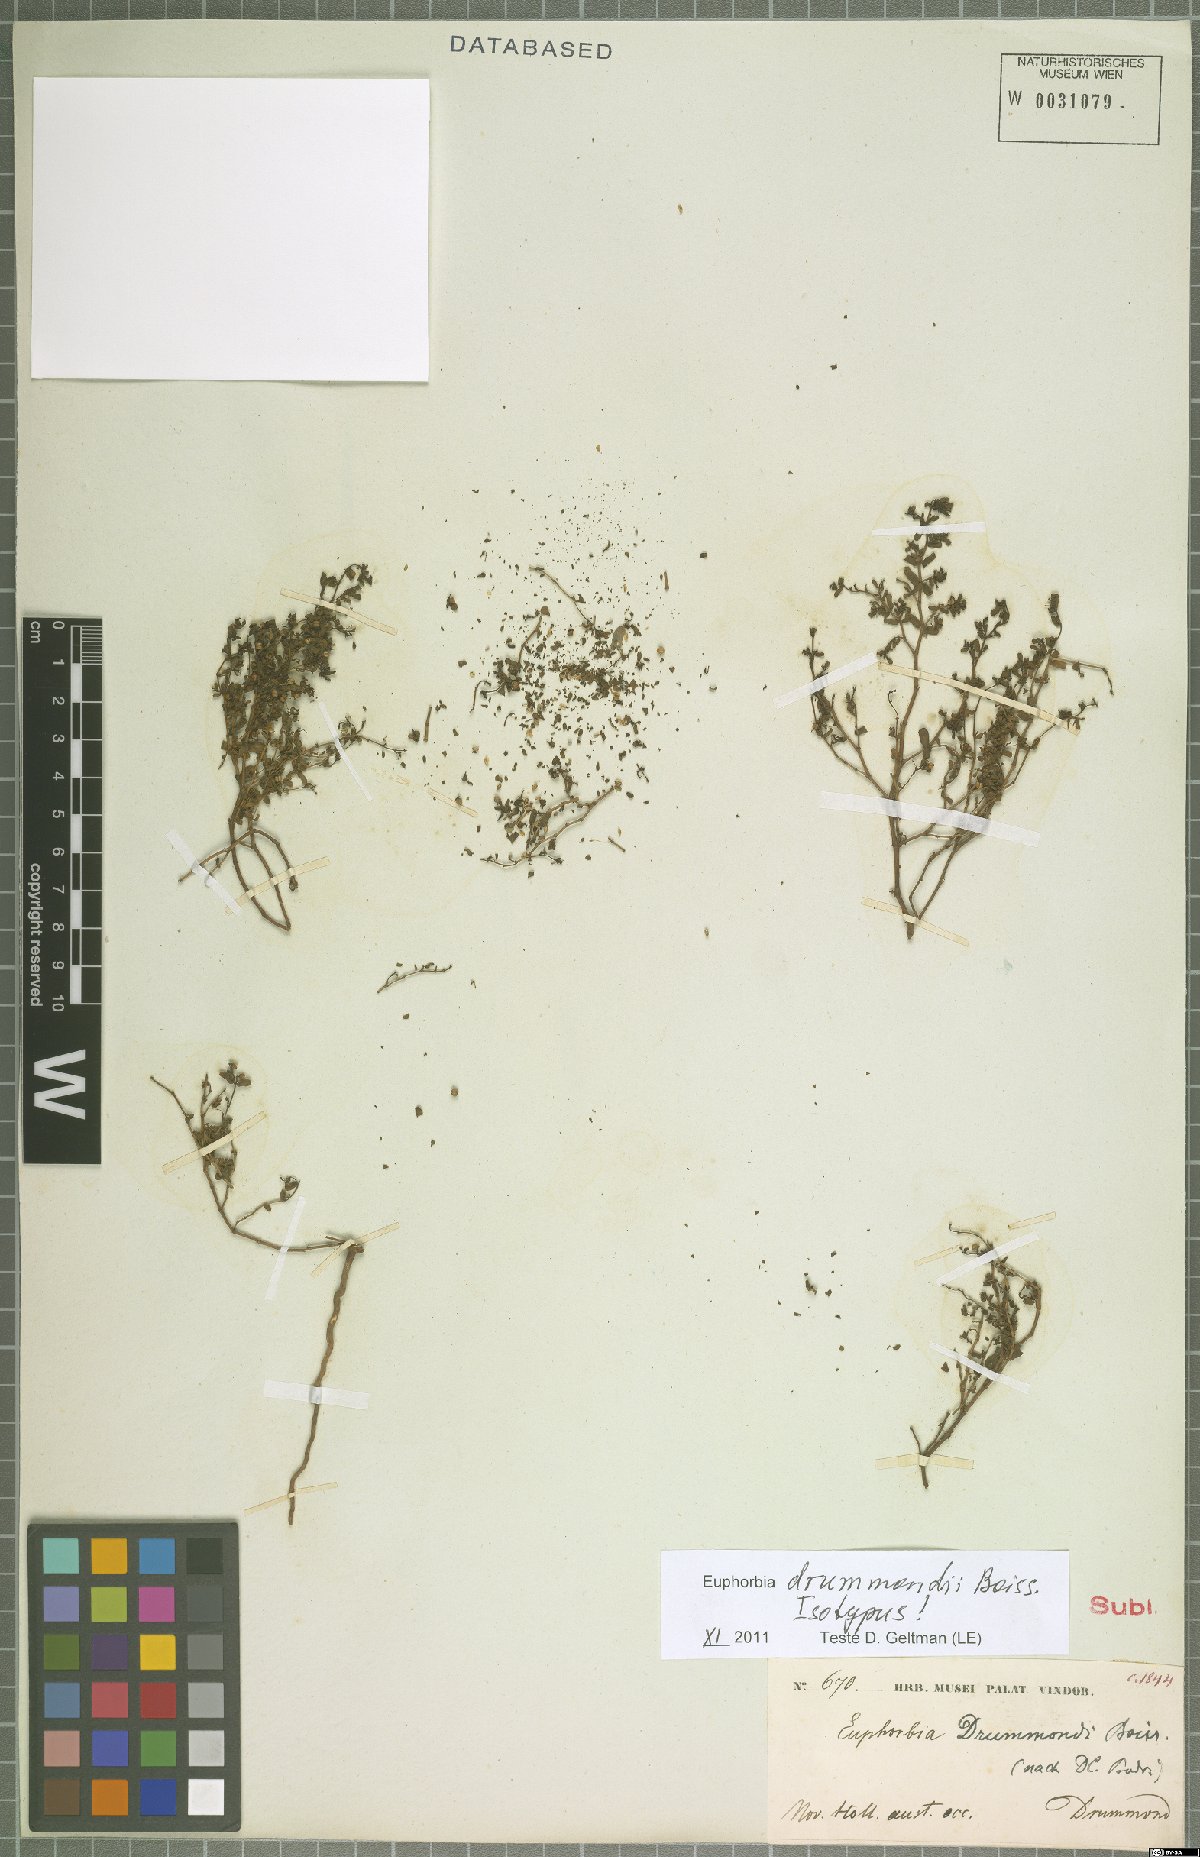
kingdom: Plantae
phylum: Tracheophyta
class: Magnoliopsida
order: Malpighiales
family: Euphorbiaceae
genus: Euphorbia
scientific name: Euphorbia drummondii
